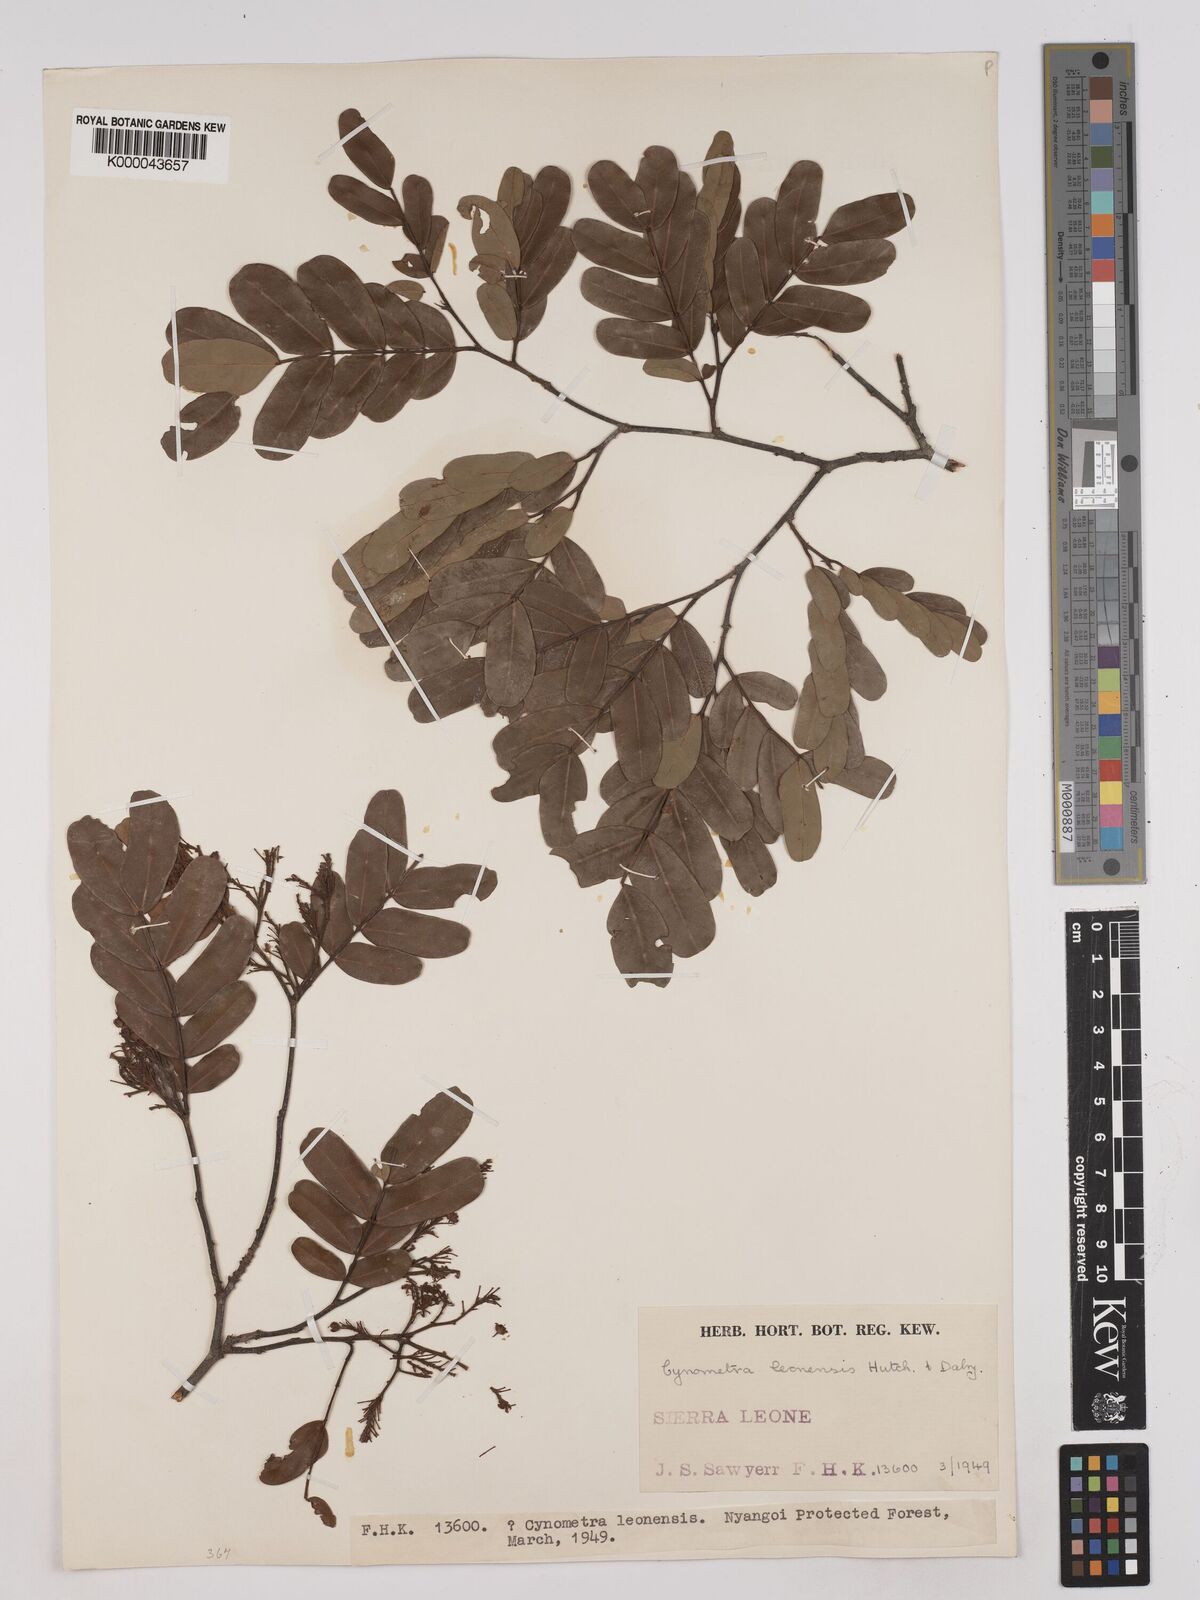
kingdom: Plantae
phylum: Tracheophyta
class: Magnoliopsida
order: Fabales
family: Fabaceae
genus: Cynometra
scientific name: Cynometra leonensis
